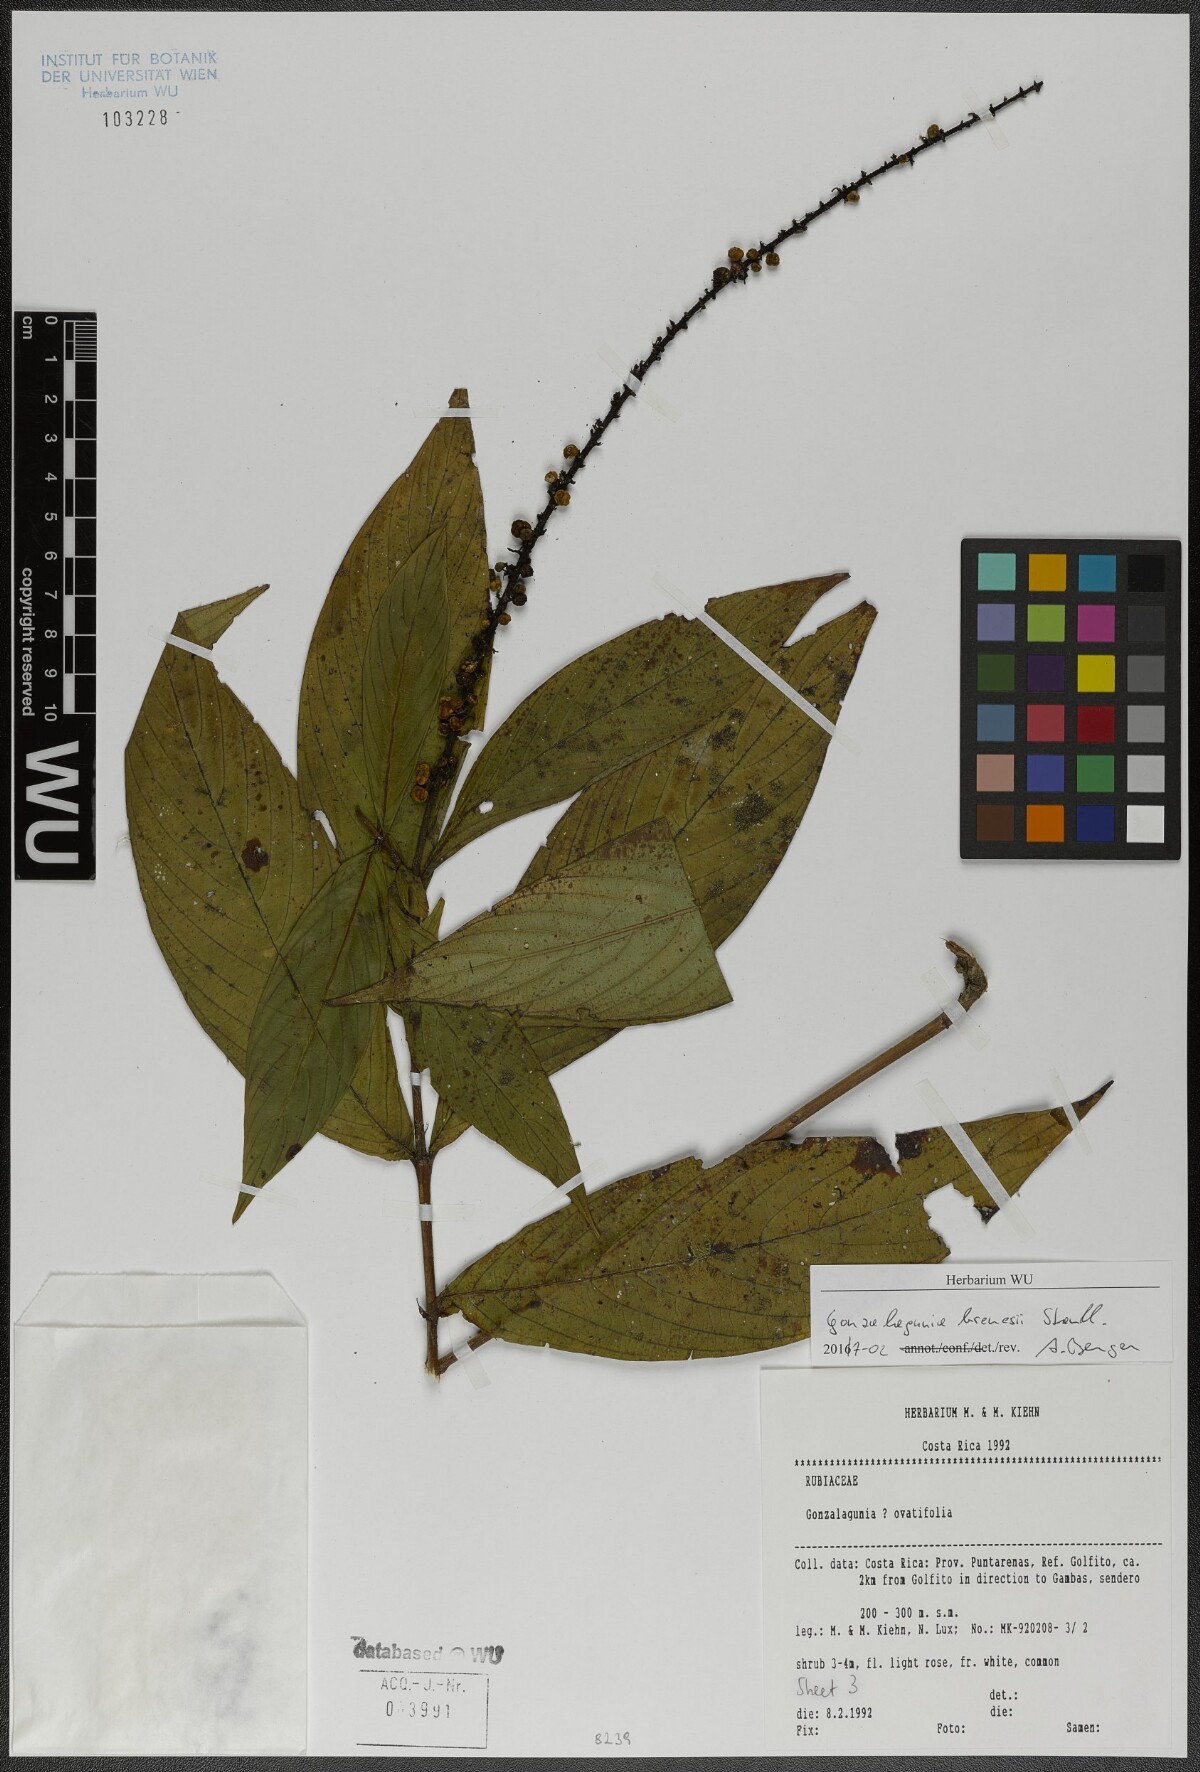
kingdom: Plantae
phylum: Tracheophyta
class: Magnoliopsida
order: Gentianales
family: Rubiaceae
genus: Gonzalagunia
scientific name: Gonzalagunia brenesii
